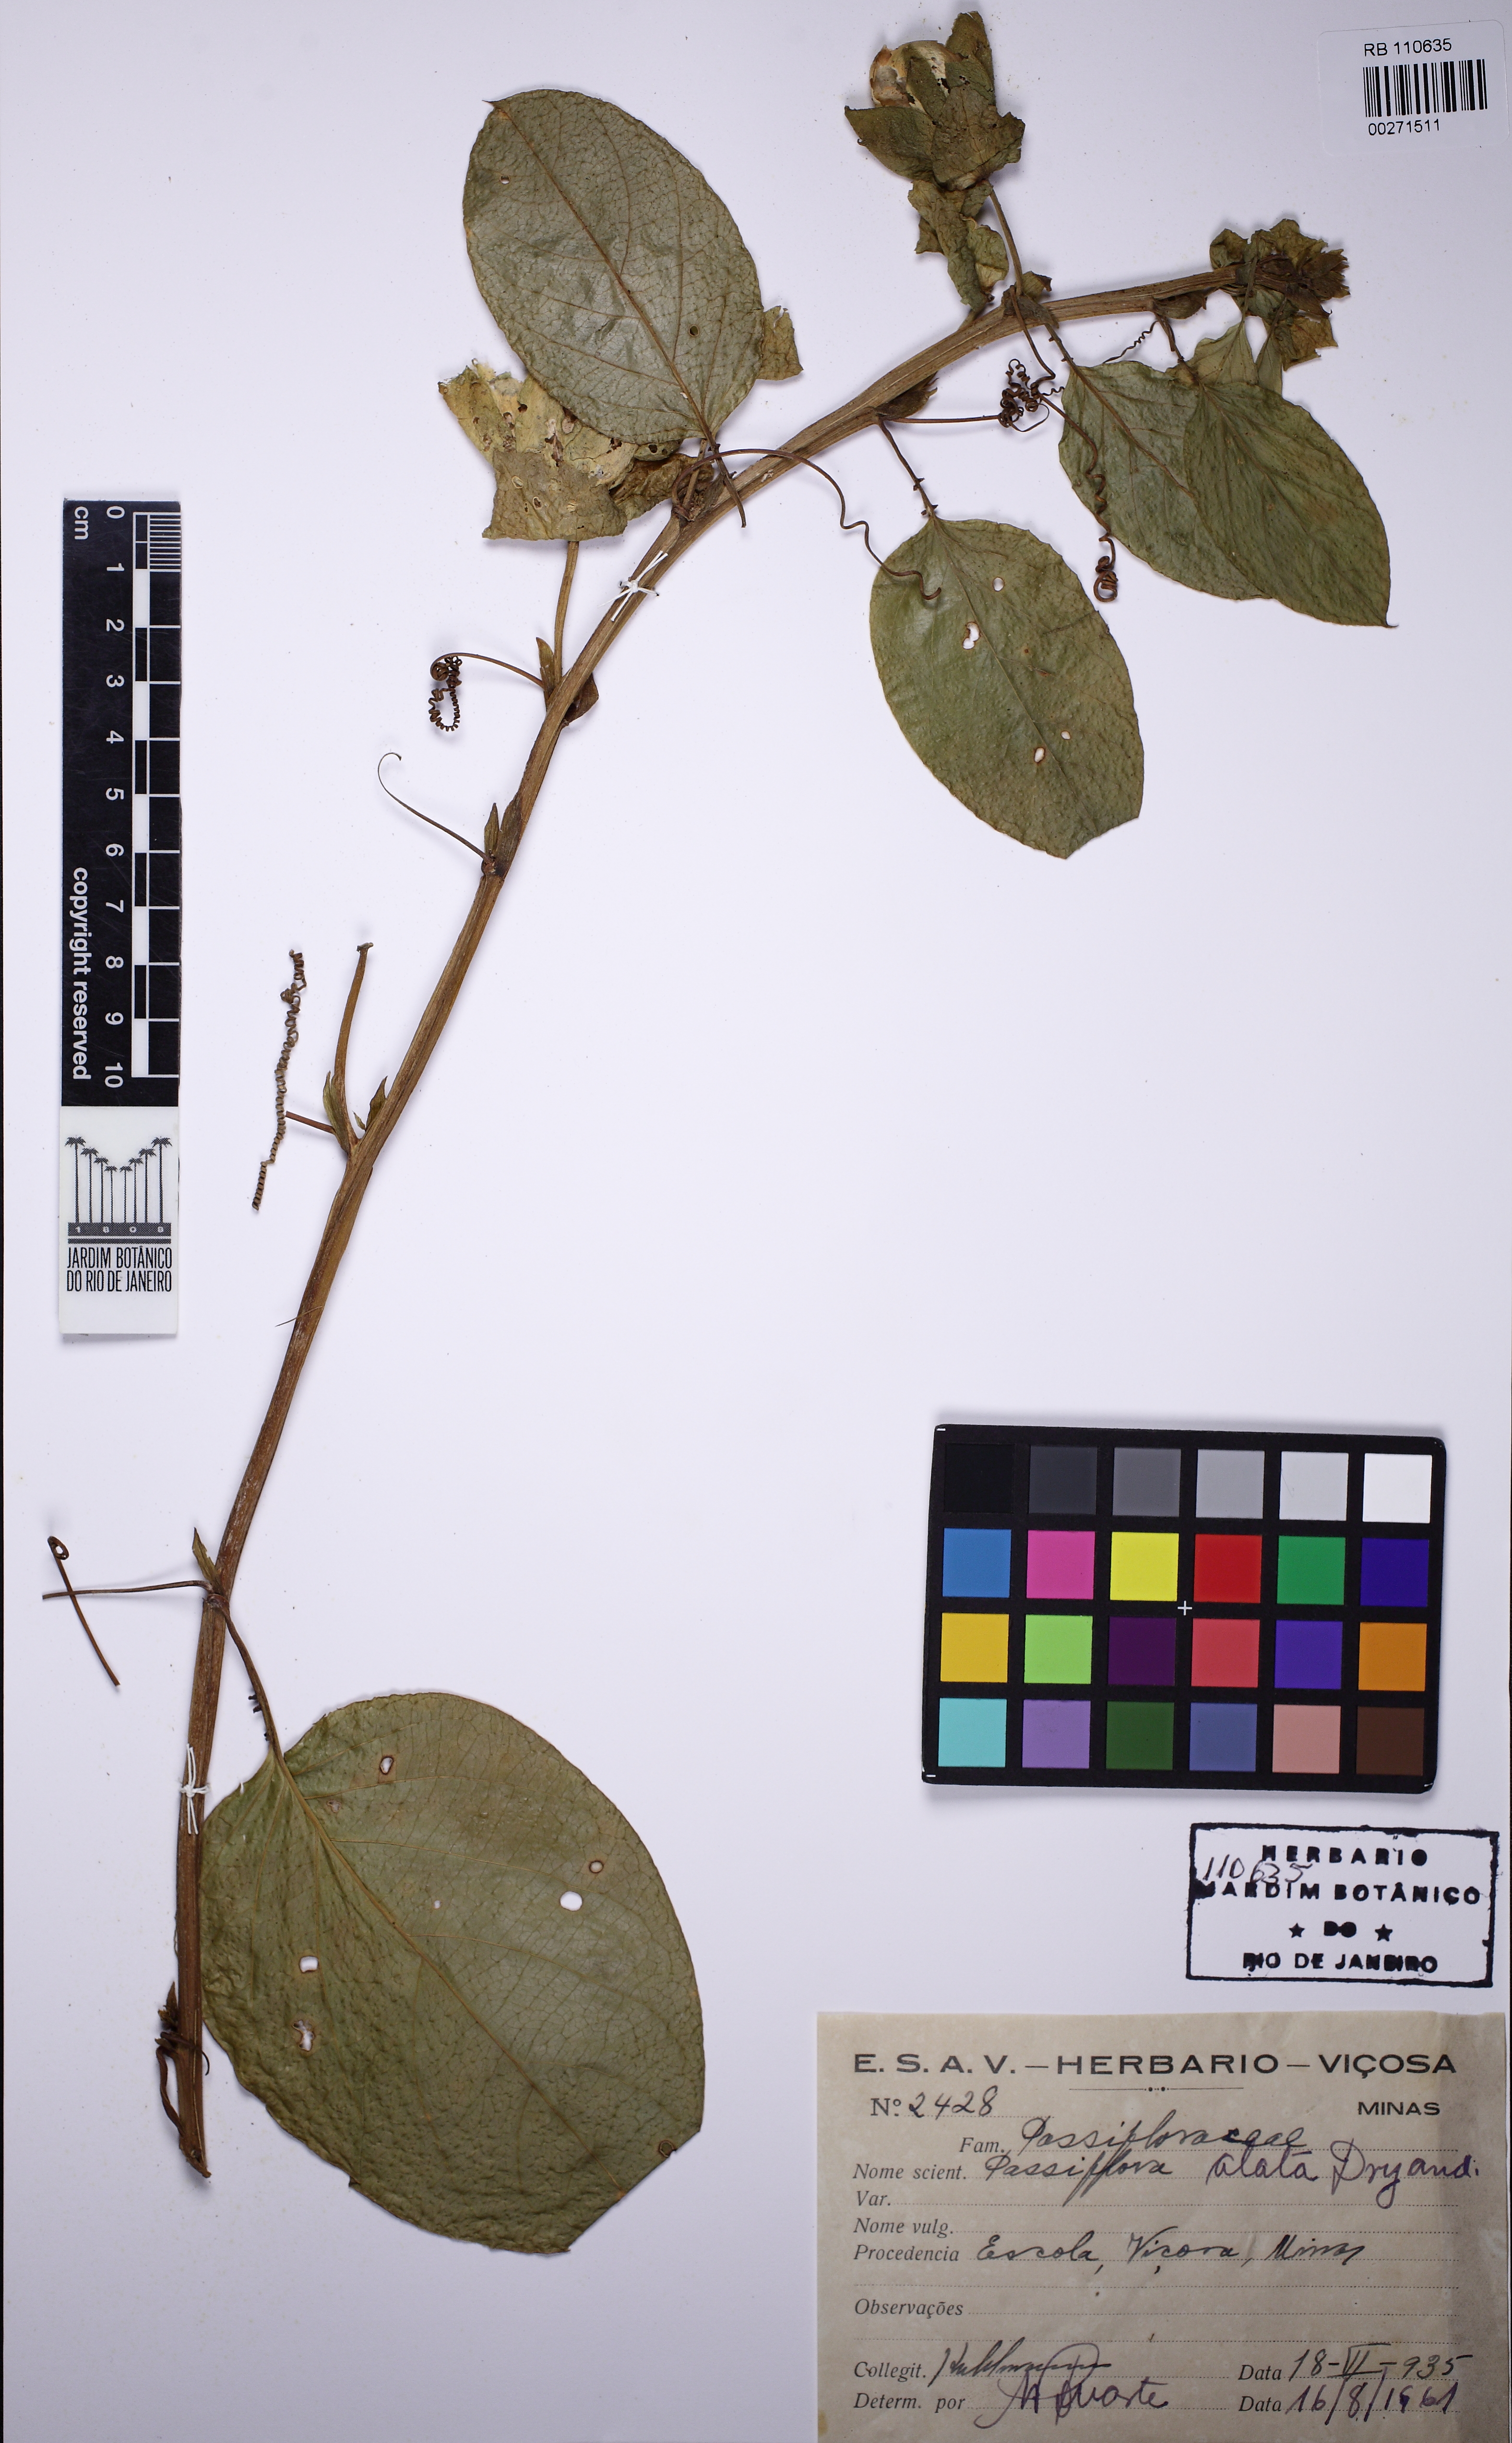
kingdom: Plantae
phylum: Tracheophyta
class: Magnoliopsida
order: Malpighiales
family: Passifloraceae
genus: Passiflora
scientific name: Passiflora alata
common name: Wing-stemmed passion flower
